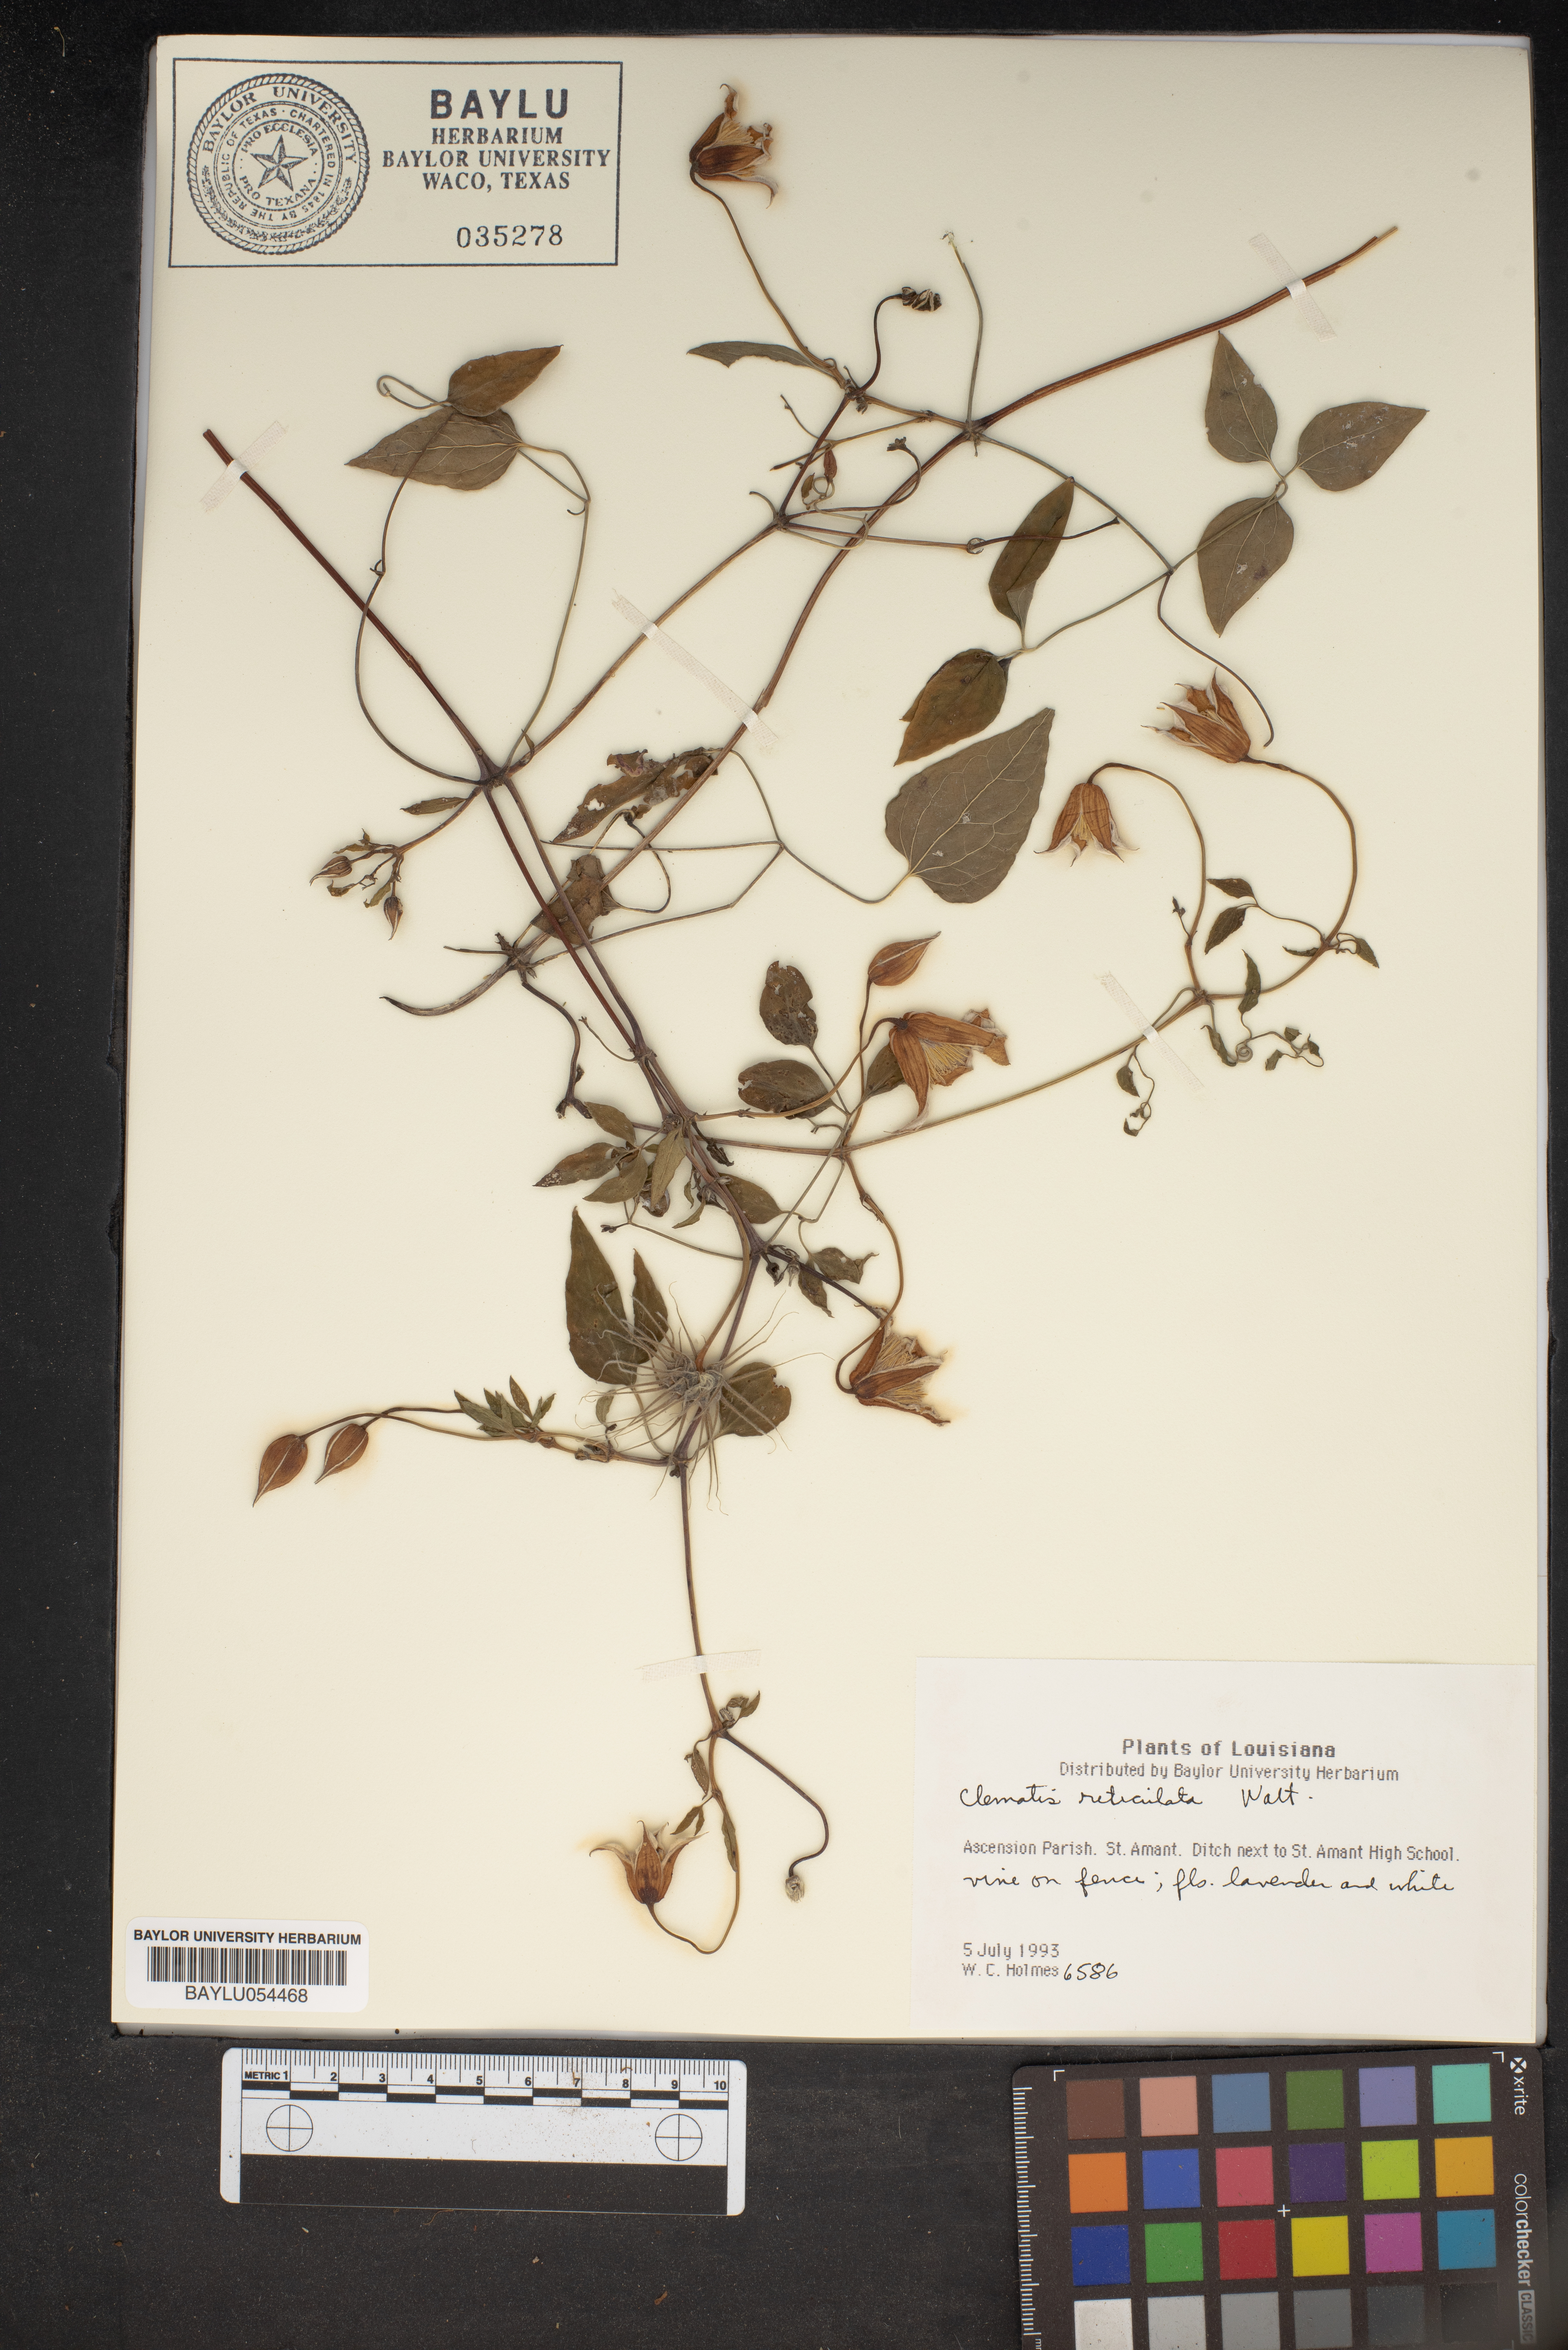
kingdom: Plantae
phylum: Tracheophyta
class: Magnoliopsida
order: Ranunculales
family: Ranunculaceae
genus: Clematis
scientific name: Clematis reticulata
